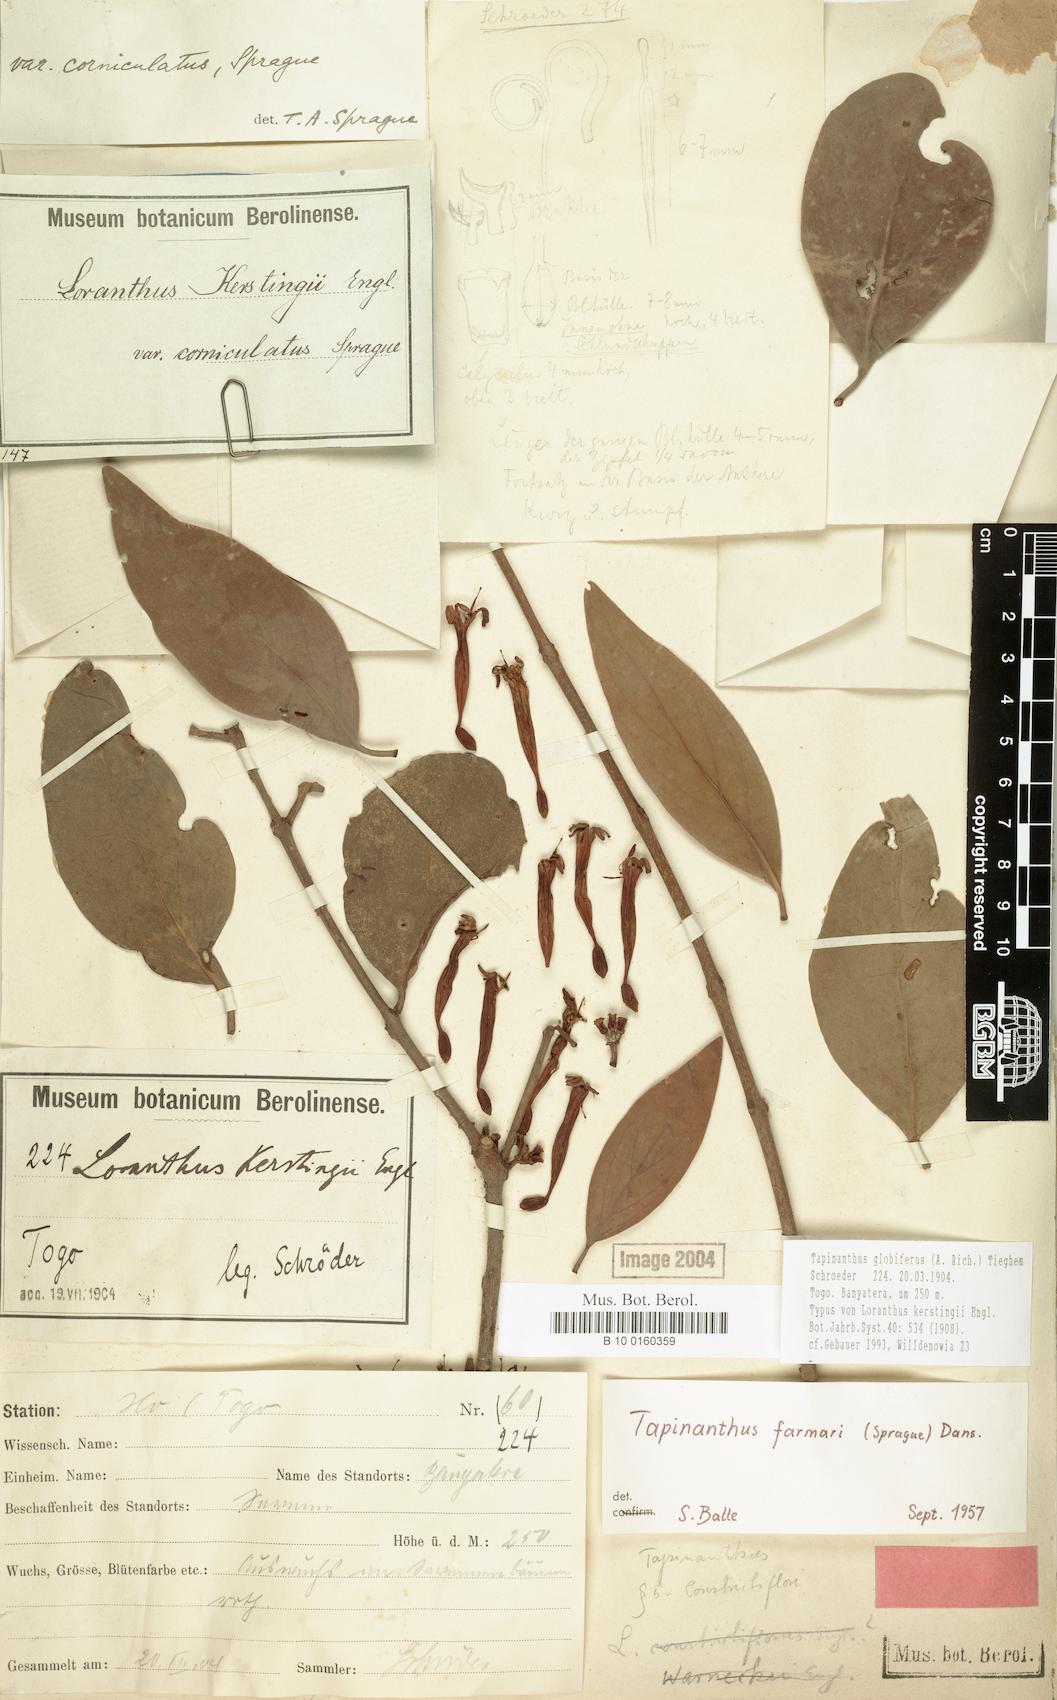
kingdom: Plantae
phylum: Tracheophyta
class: Magnoliopsida
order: Santalales
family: Loranthaceae
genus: Tapinanthus
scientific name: Tapinanthus globiferus
